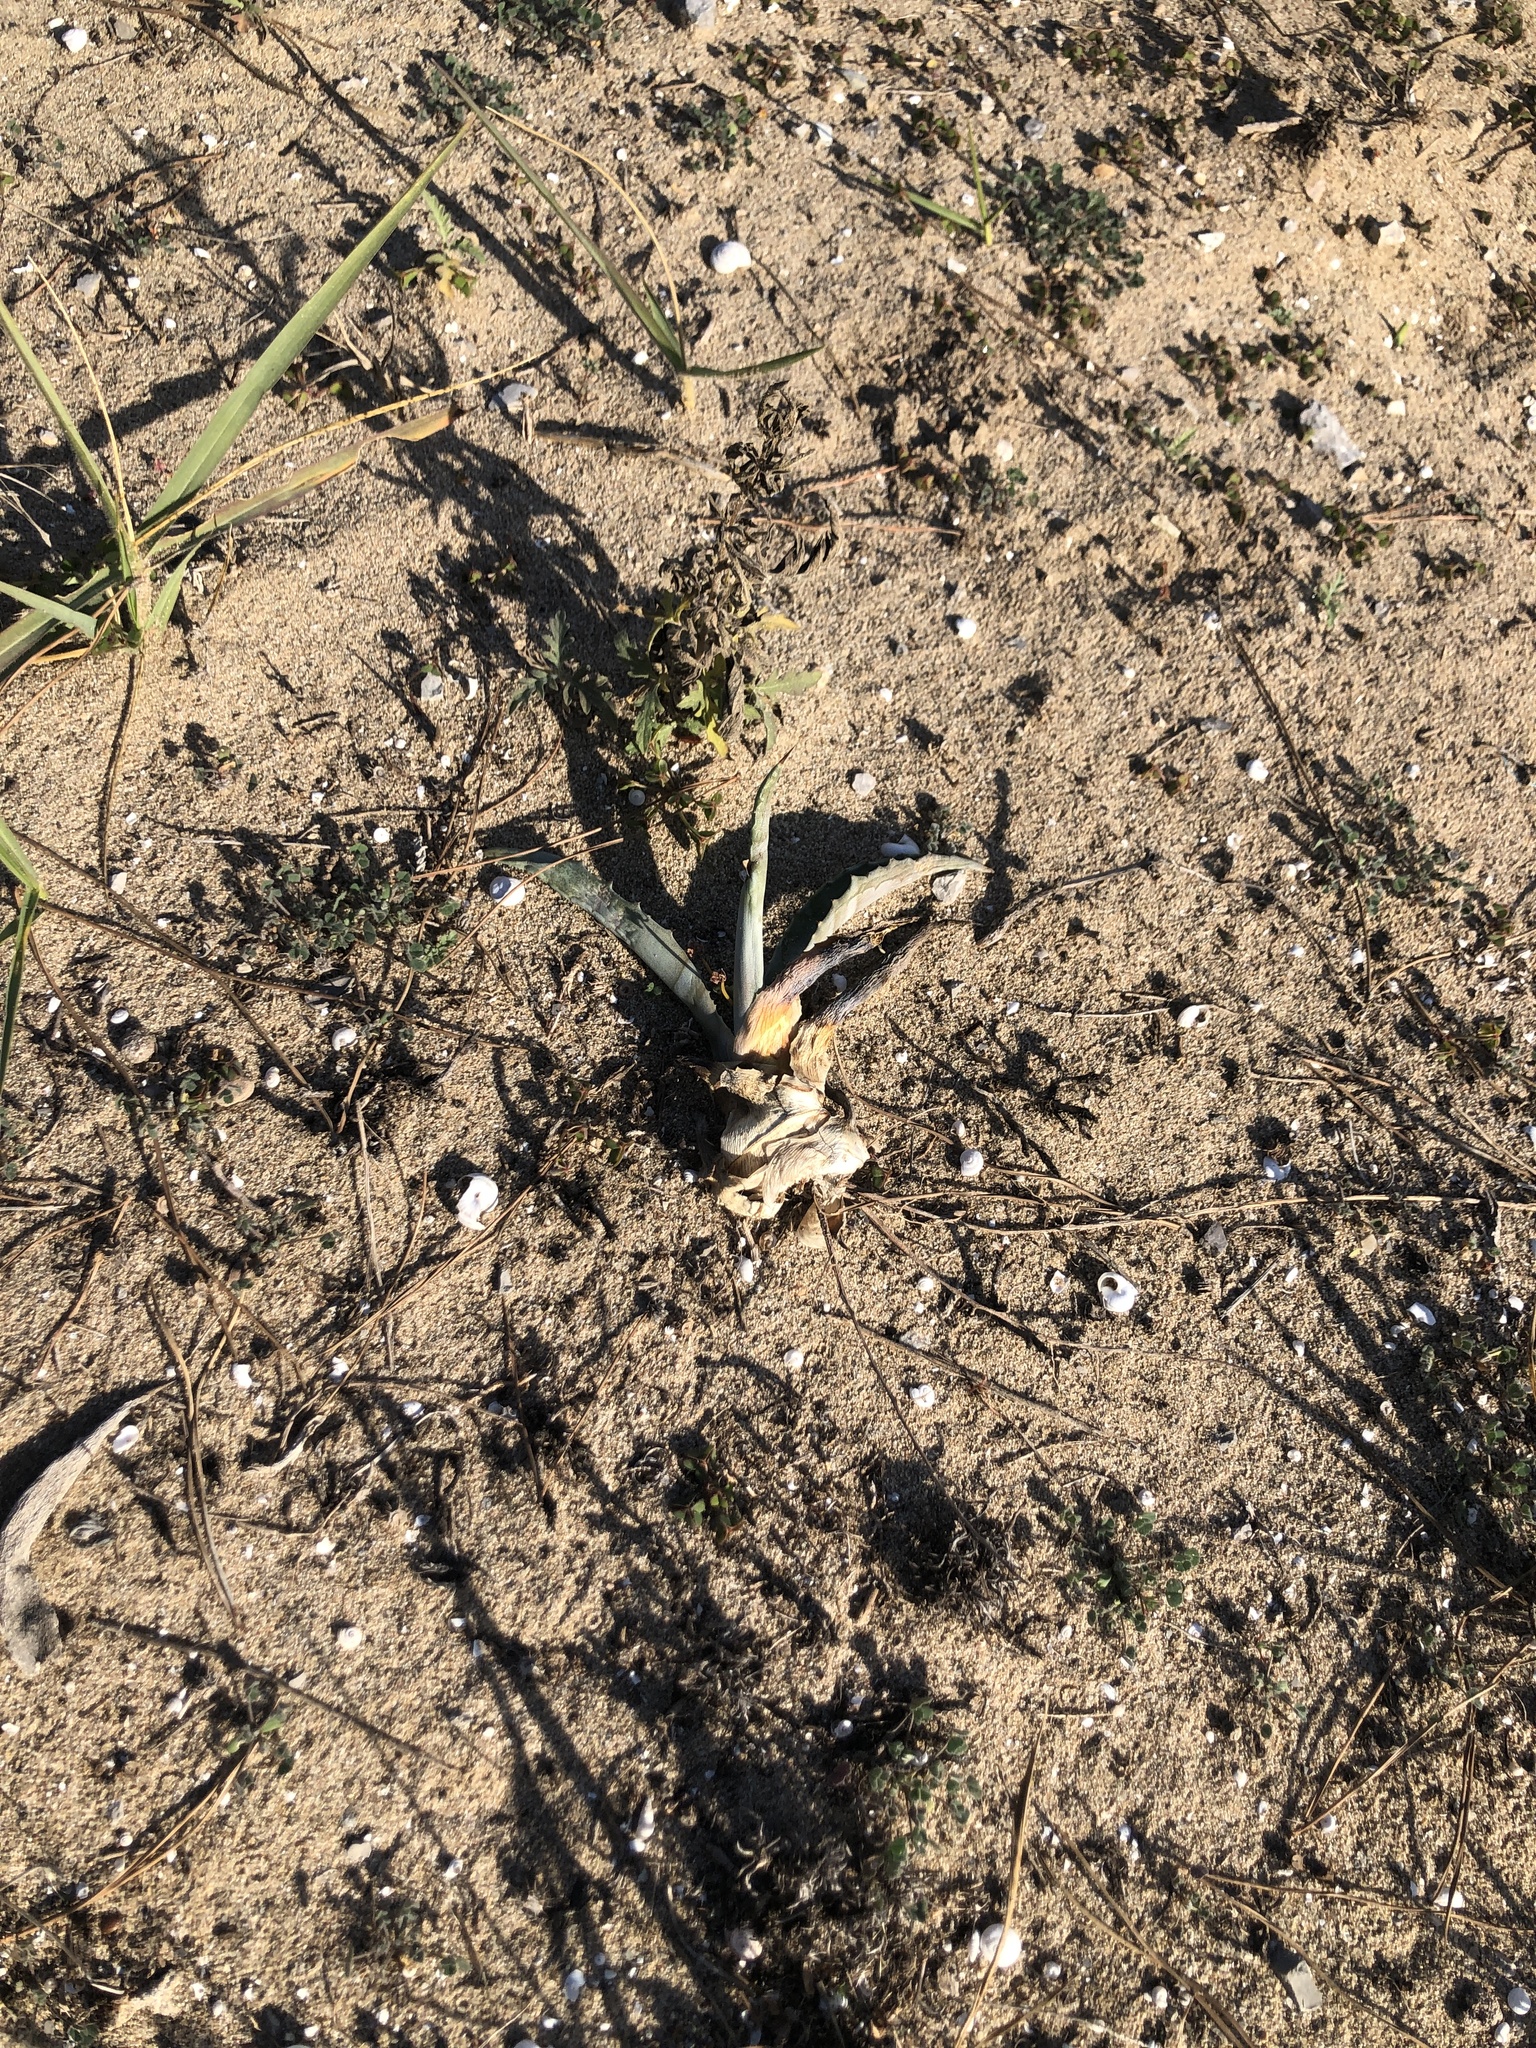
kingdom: Plantae
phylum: Tracheophyta
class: Liliopsida
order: Asparagales
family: Asparagaceae
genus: Agave
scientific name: Agave americana
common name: Centuryplant
